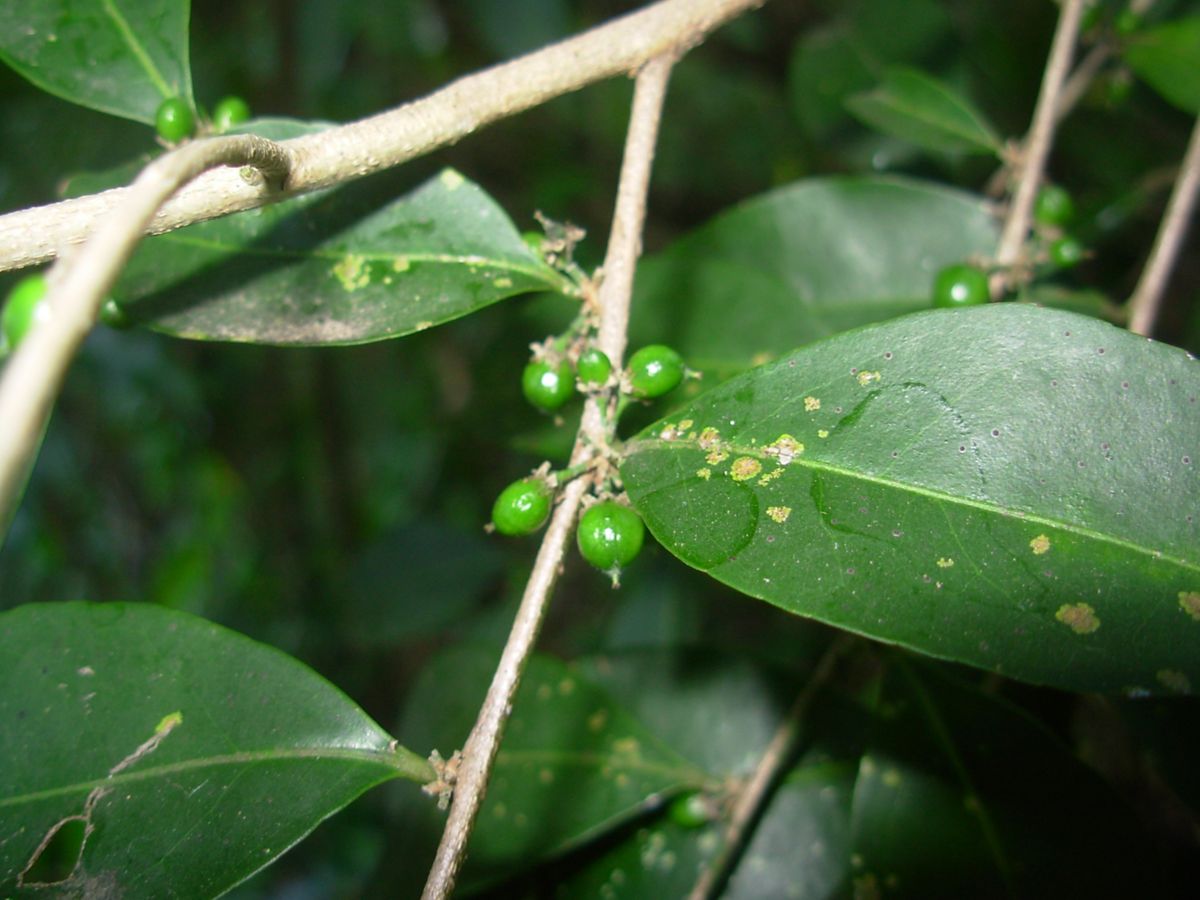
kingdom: Plantae
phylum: Tracheophyta
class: Magnoliopsida
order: Malpighiales
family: Salicaceae
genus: Casearia
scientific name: Casearia sylvestris
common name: Wild sage
